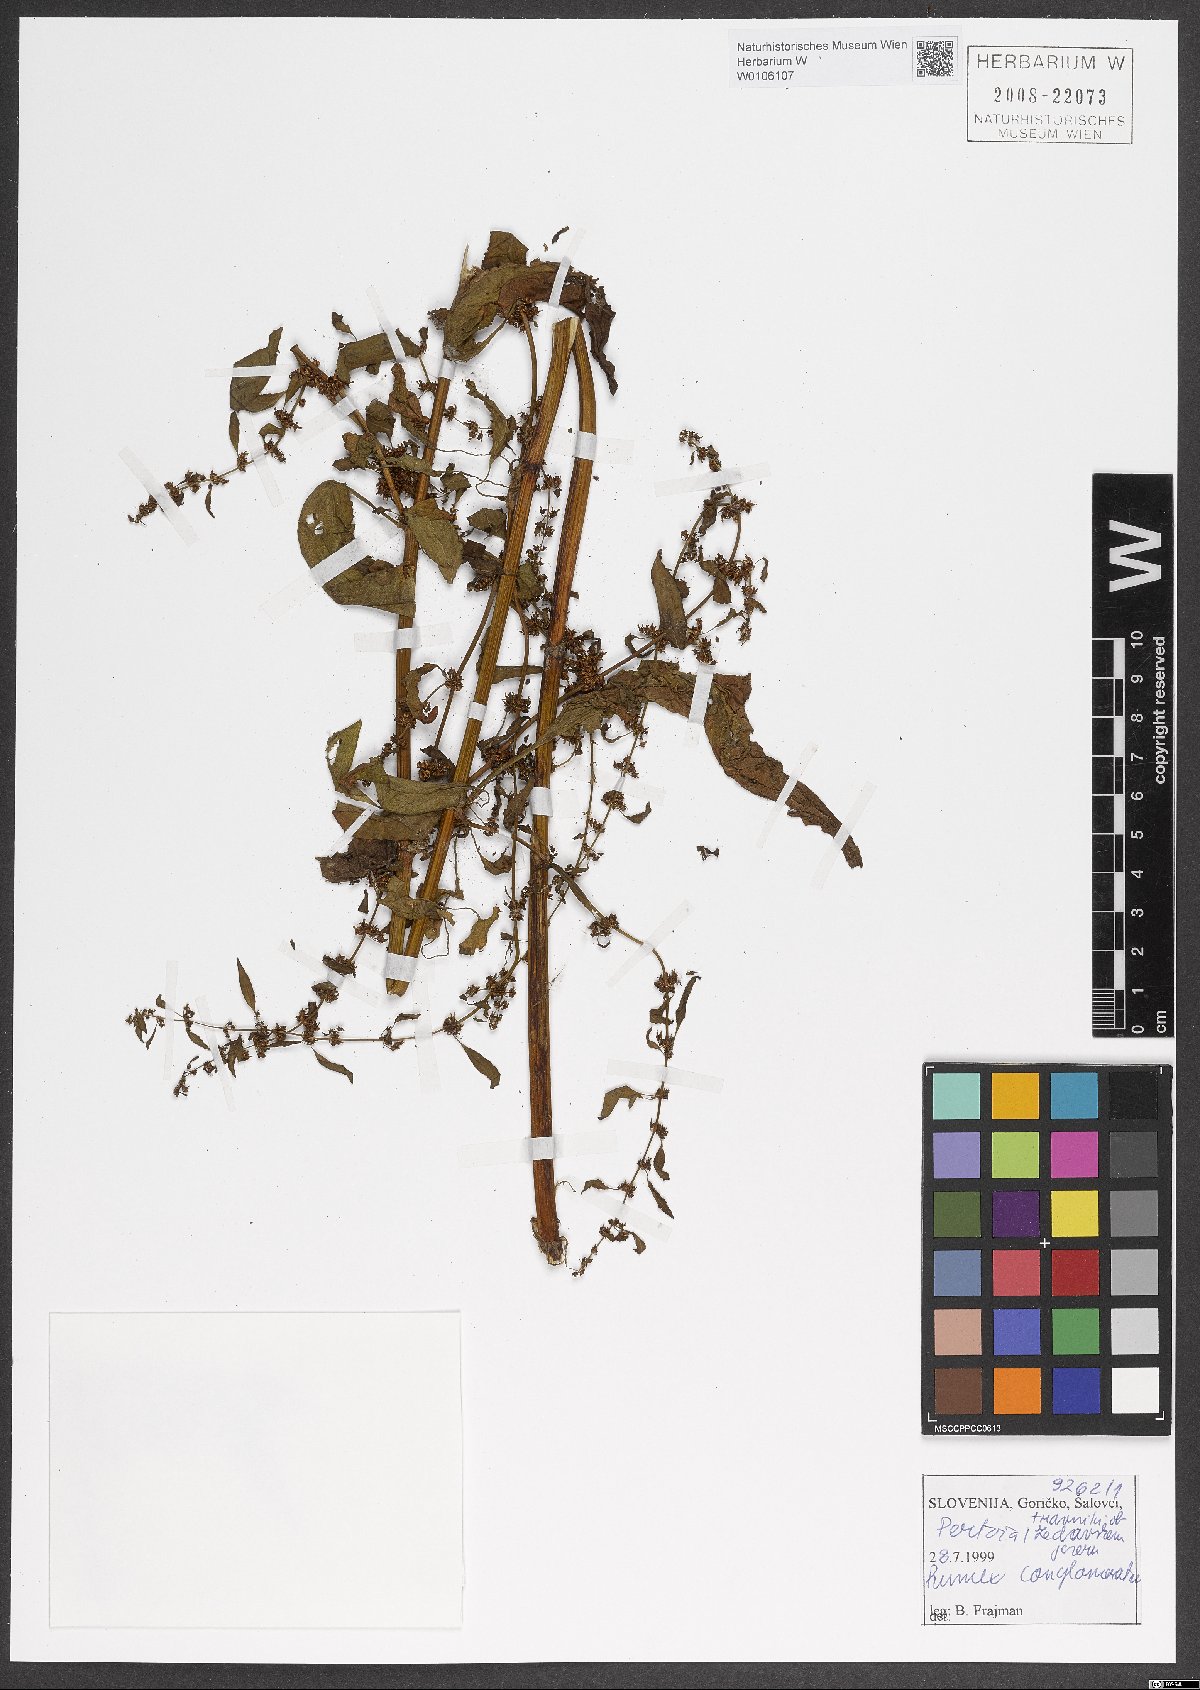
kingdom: Plantae
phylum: Tracheophyta
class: Magnoliopsida
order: Caryophyllales
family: Polygonaceae
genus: Rumex
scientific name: Rumex conglomeratus
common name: Clustered dock
